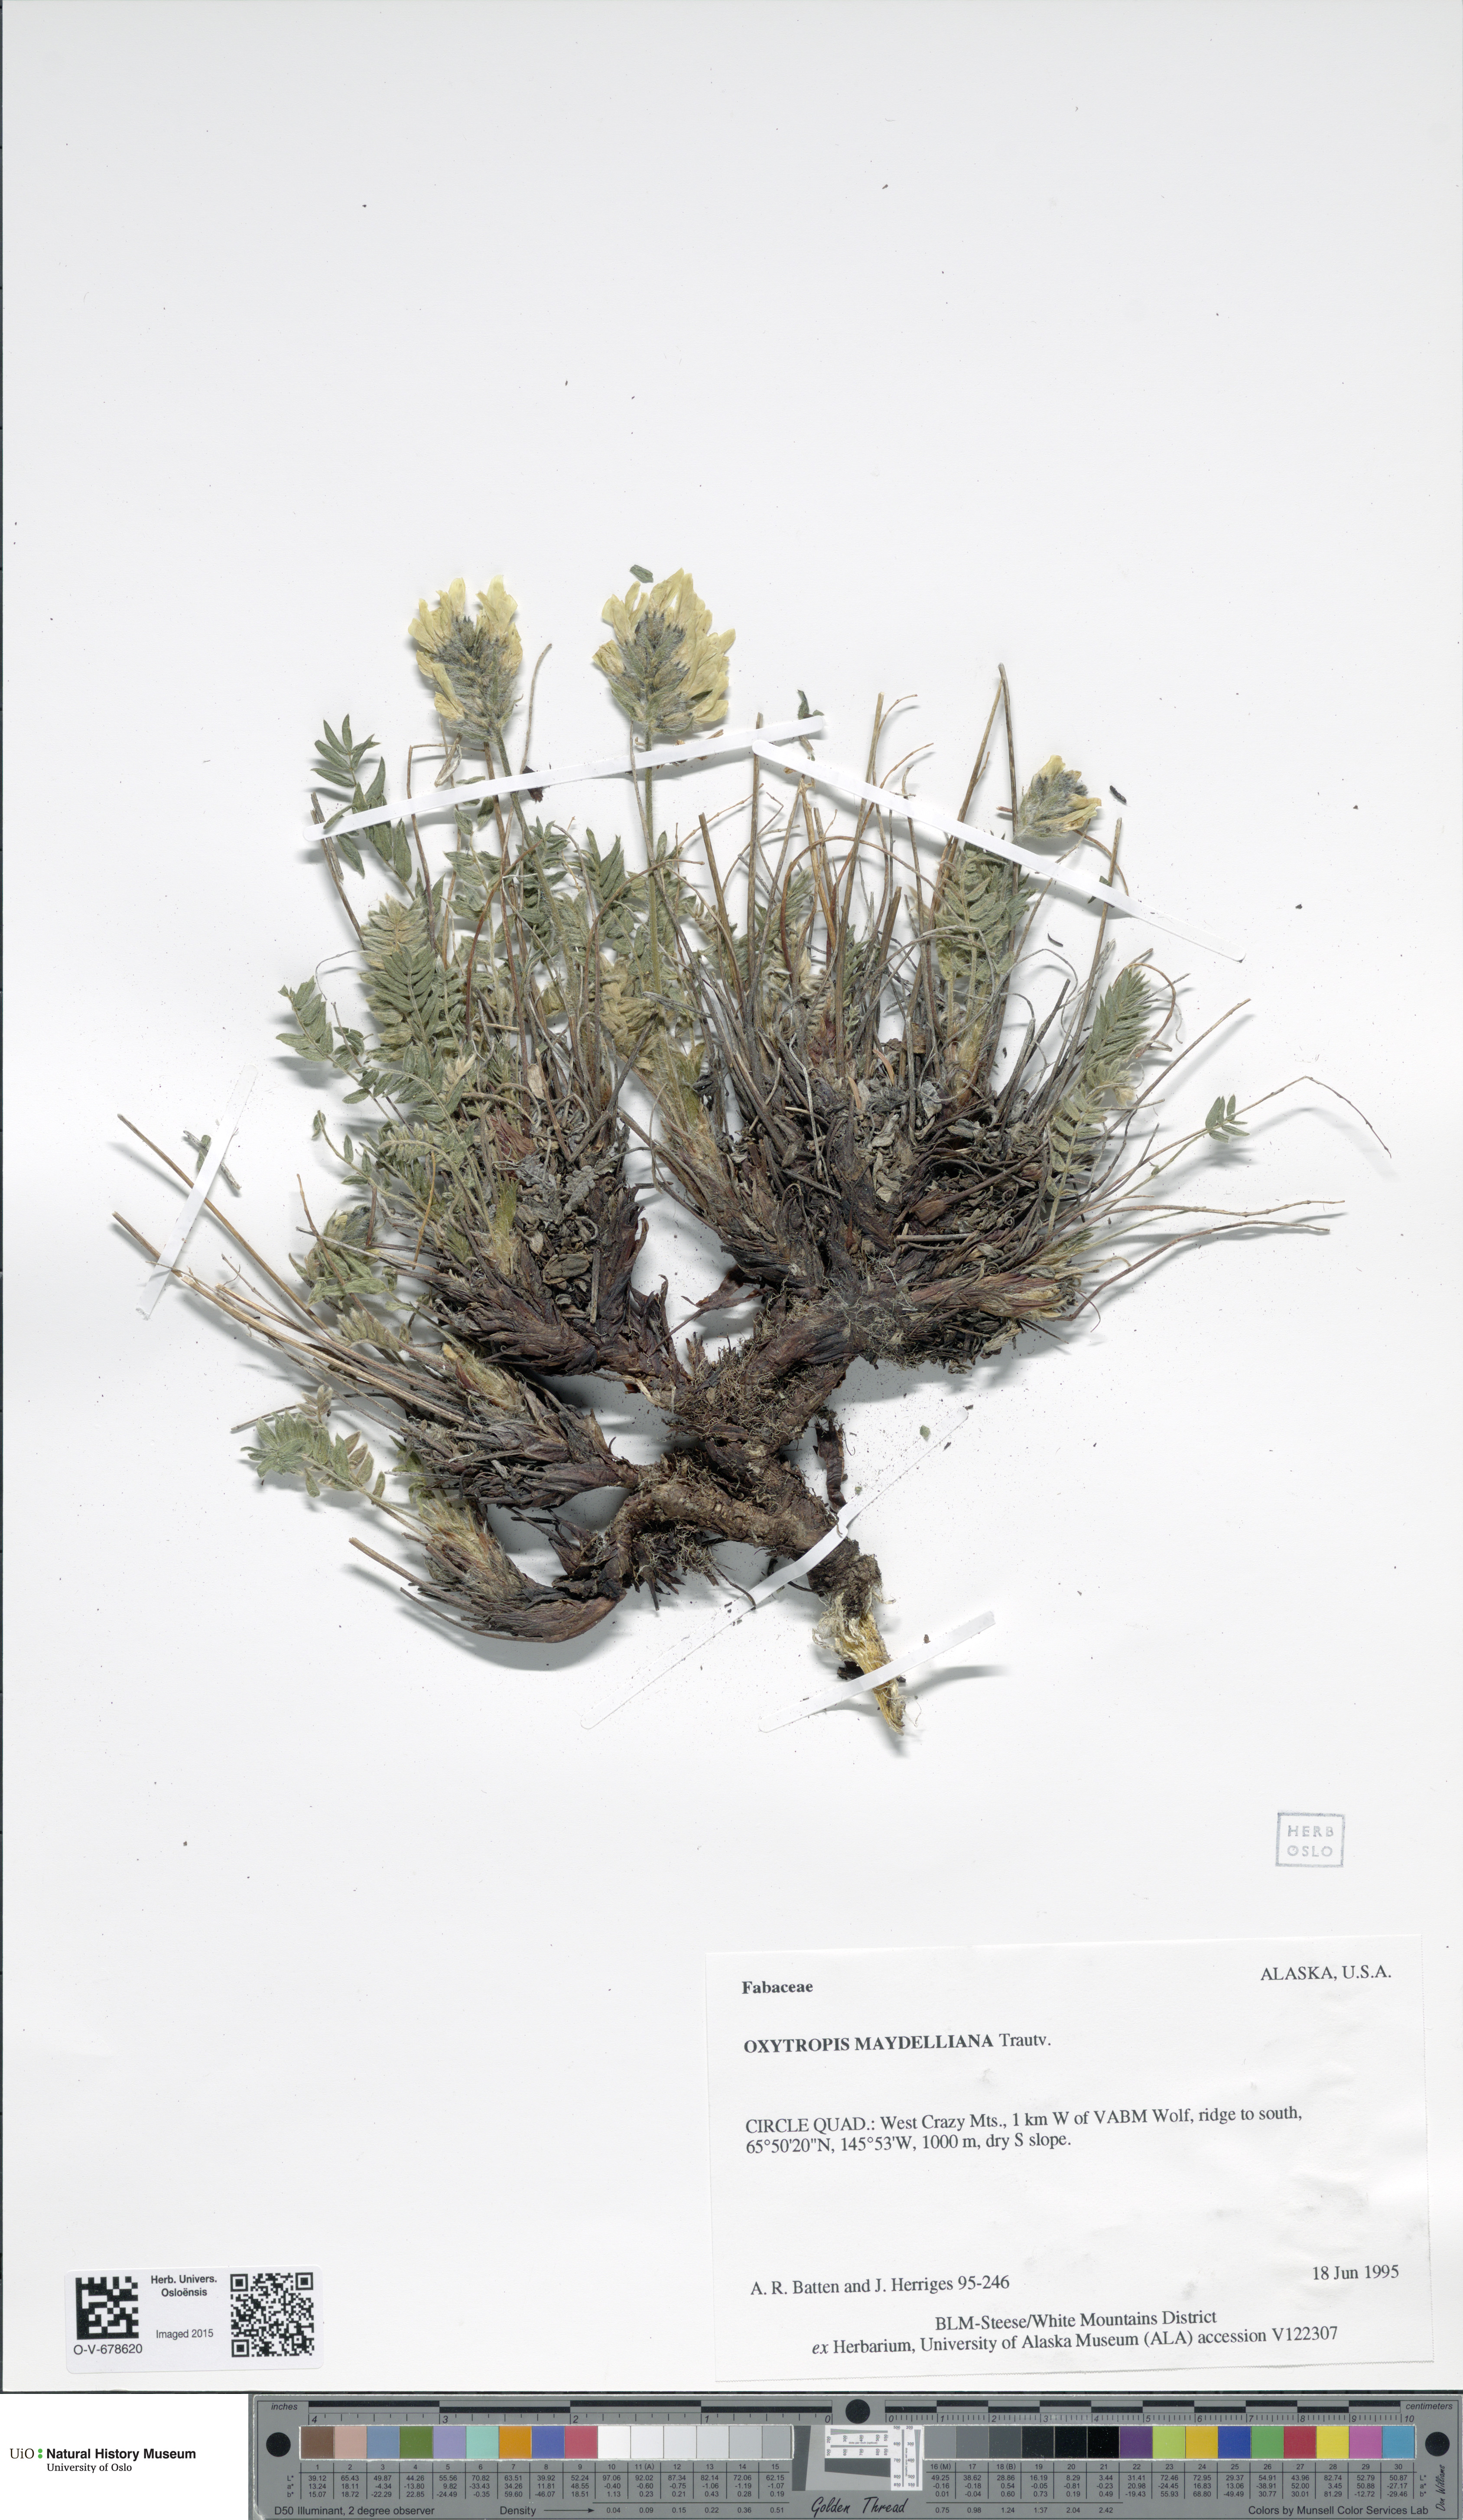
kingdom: Plantae
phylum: Tracheophyta
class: Magnoliopsida
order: Fabales
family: Fabaceae
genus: Oxytropis
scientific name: Oxytropis maydelliana
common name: Maydell's locoweed
